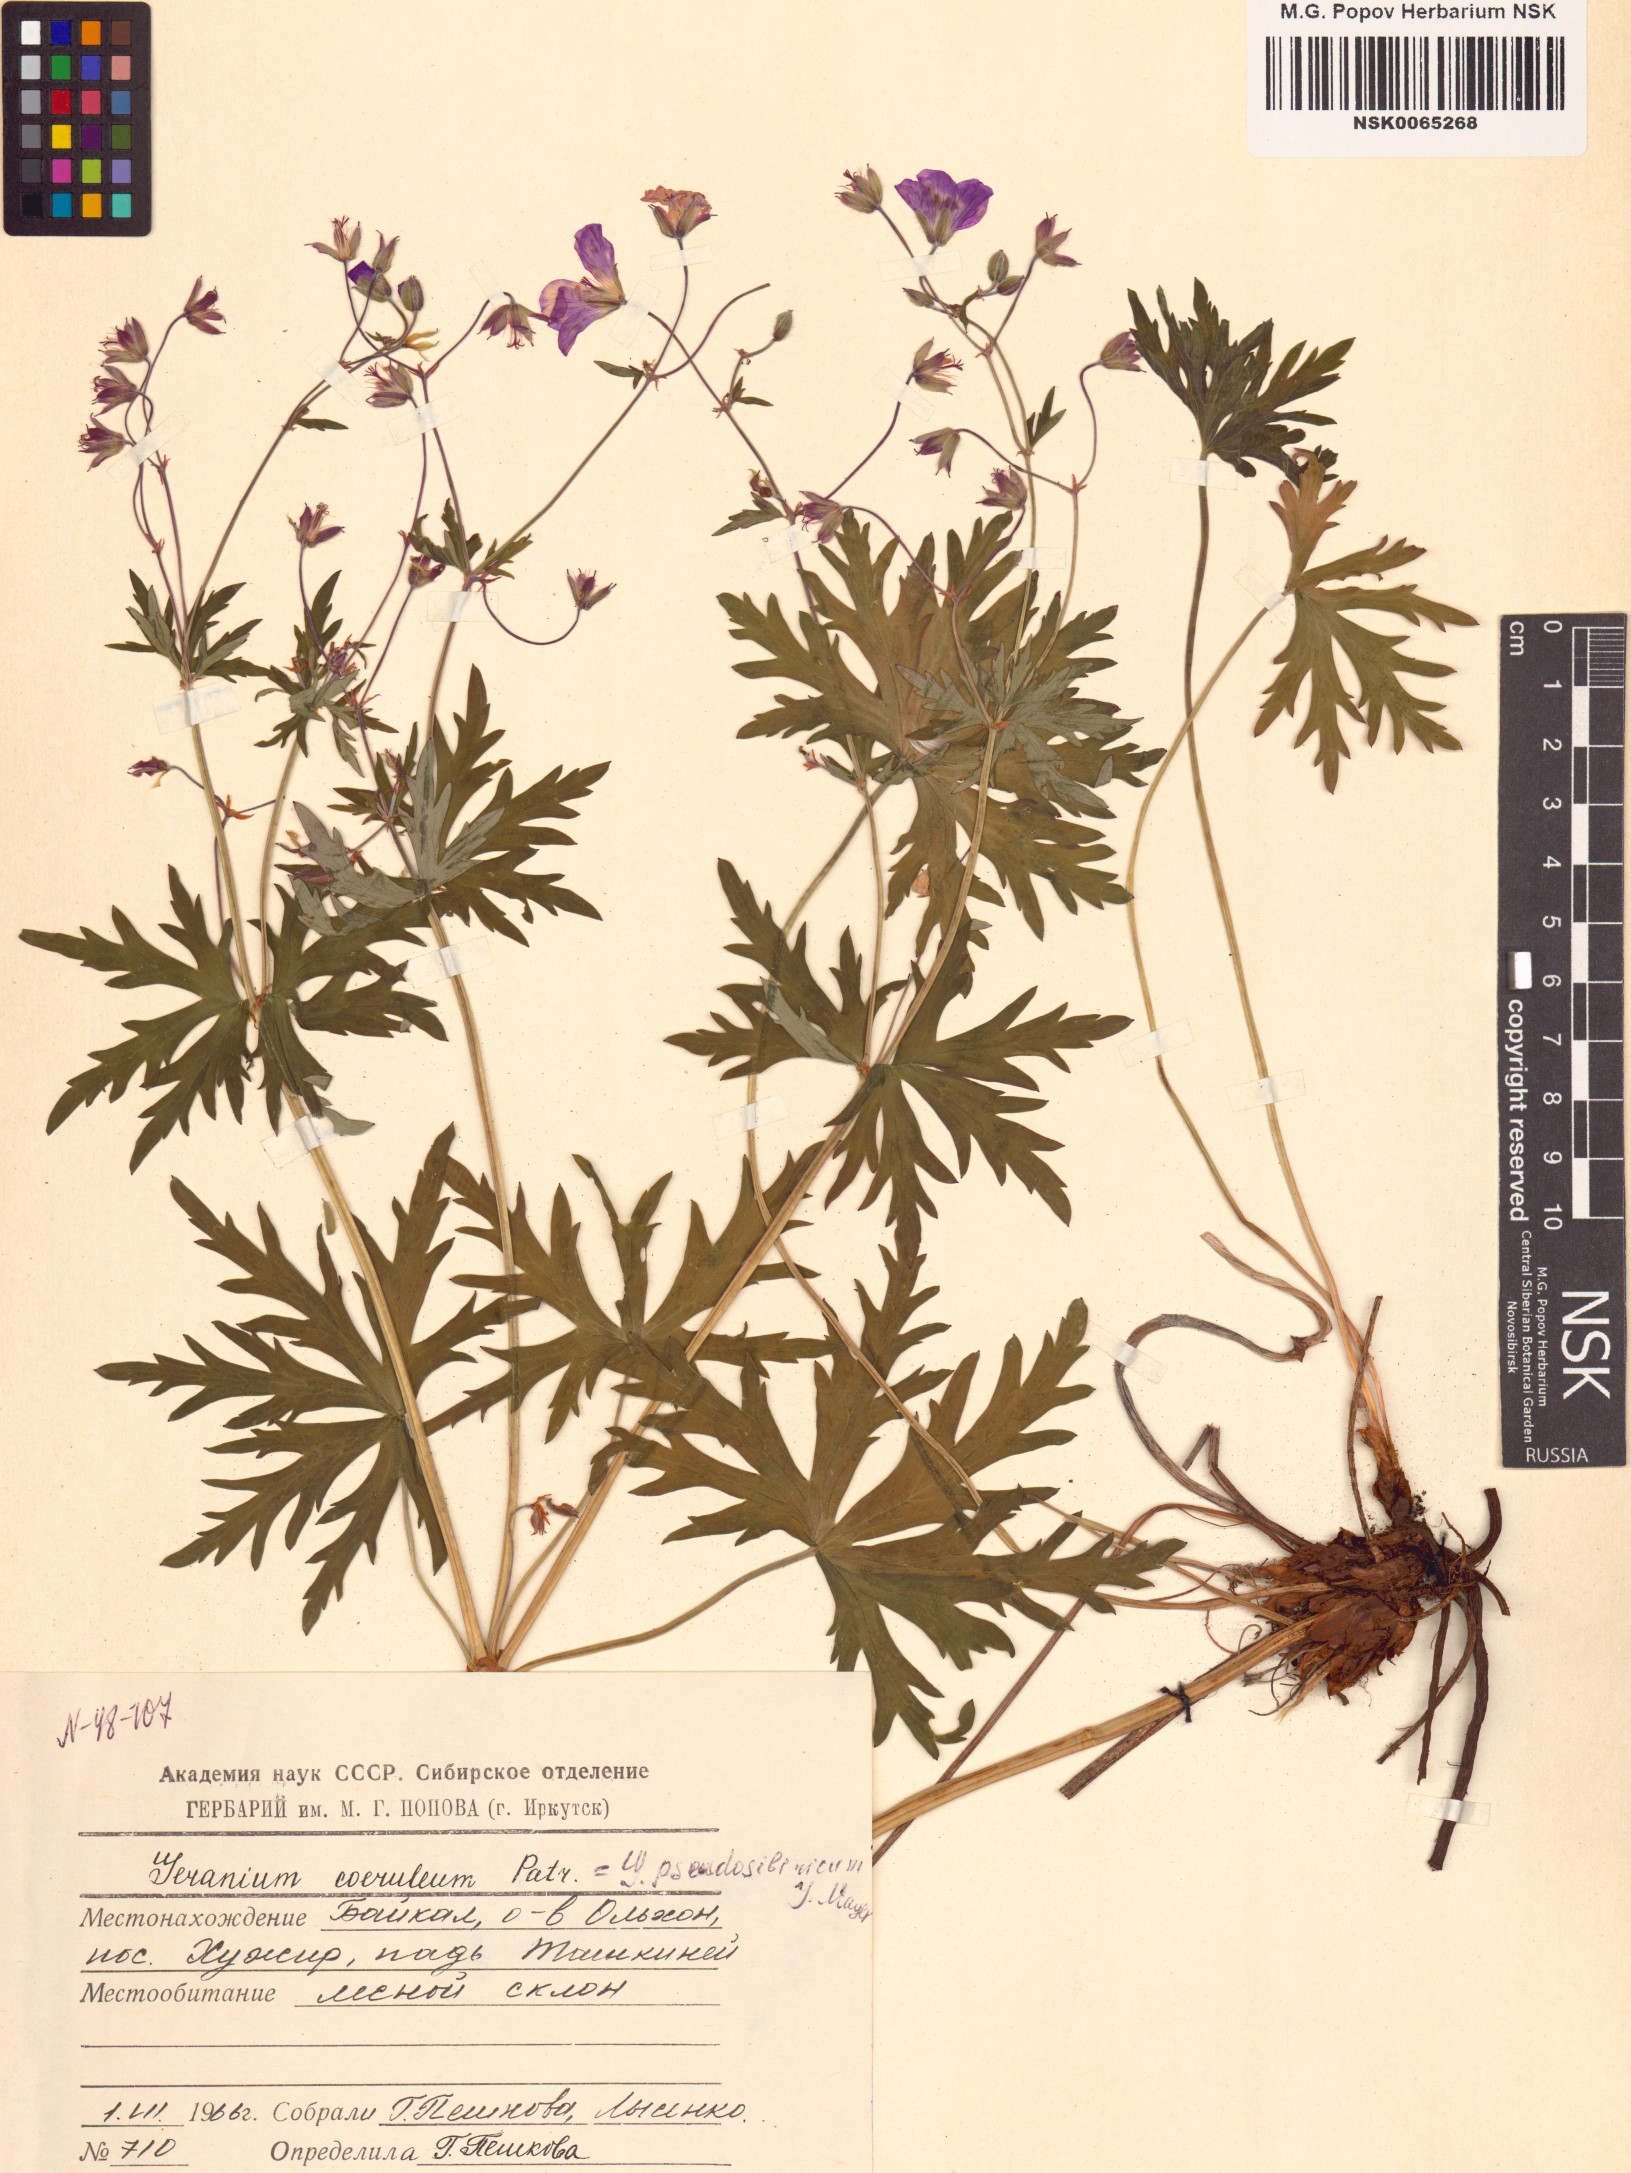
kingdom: Plantae
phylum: Tracheophyta
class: Magnoliopsida
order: Geraniales
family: Geraniaceae
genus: Geranium
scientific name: Geranium pseudosibiricum
